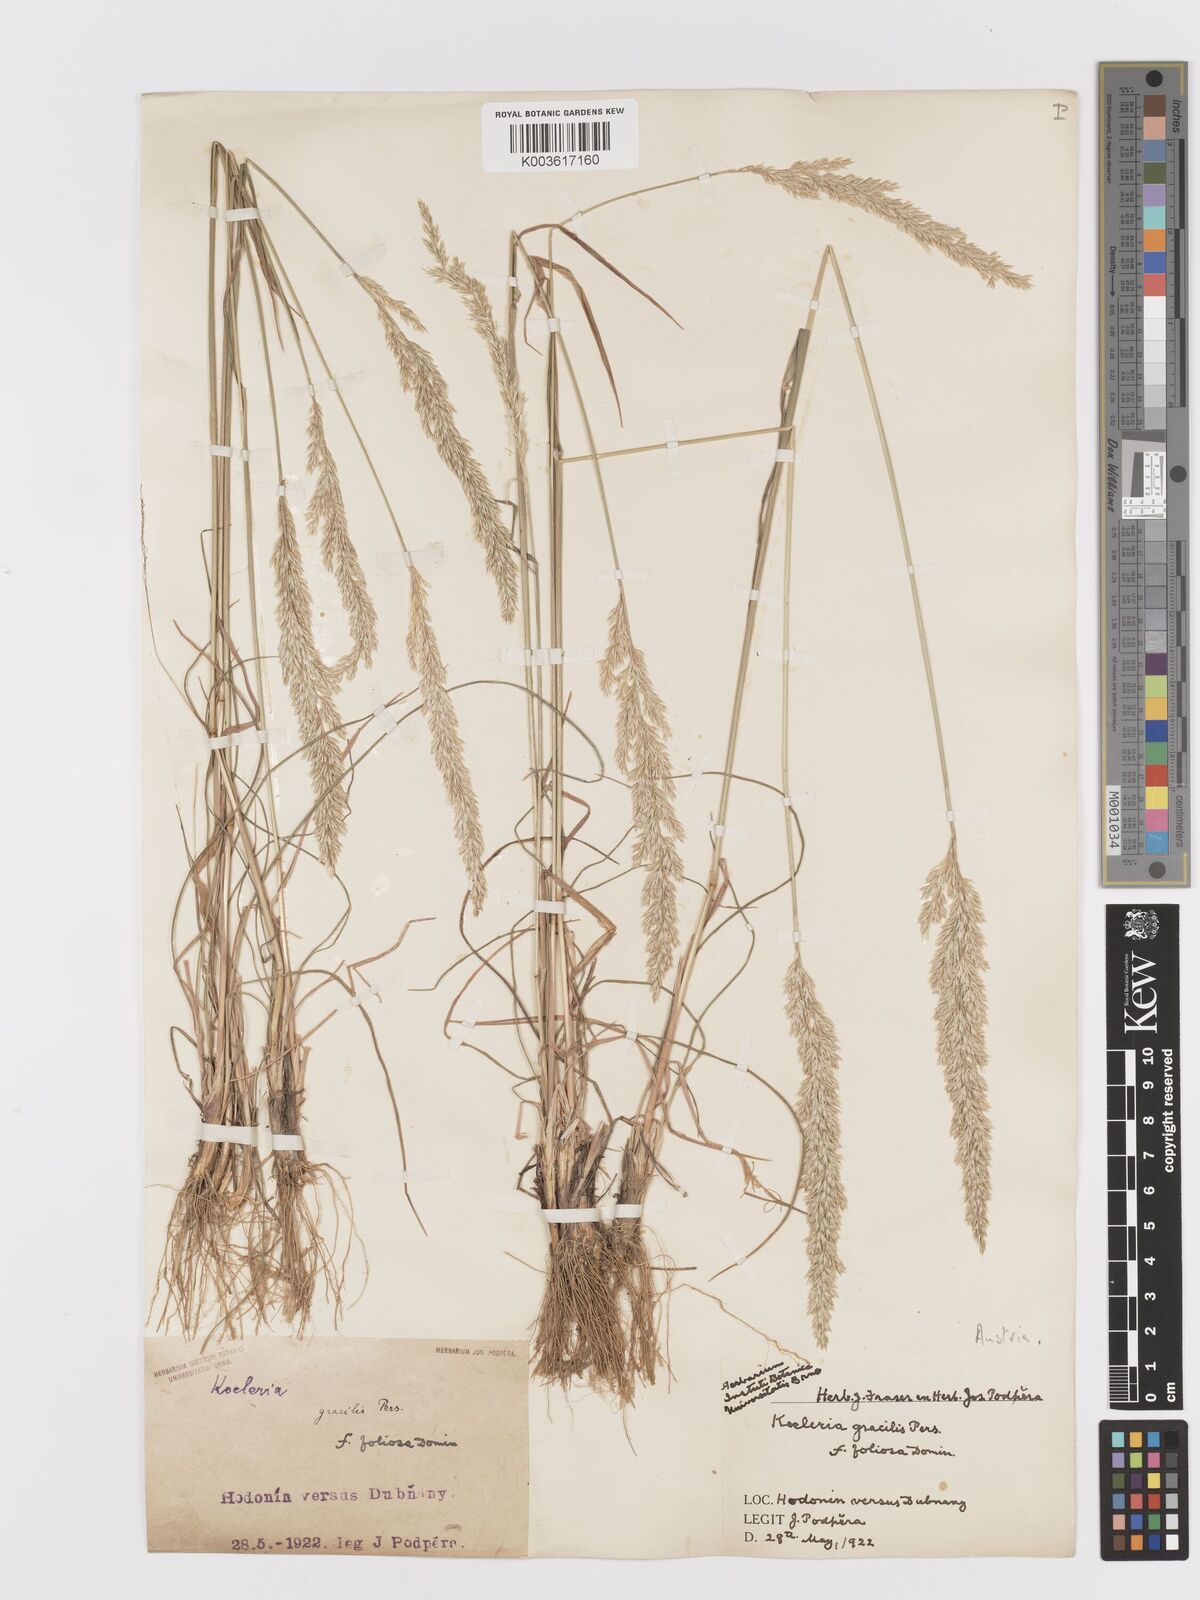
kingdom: Plantae
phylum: Tracheophyta
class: Liliopsida
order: Poales
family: Poaceae
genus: Koeleria
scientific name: Koeleria macrantha
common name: Crested hair-grass
